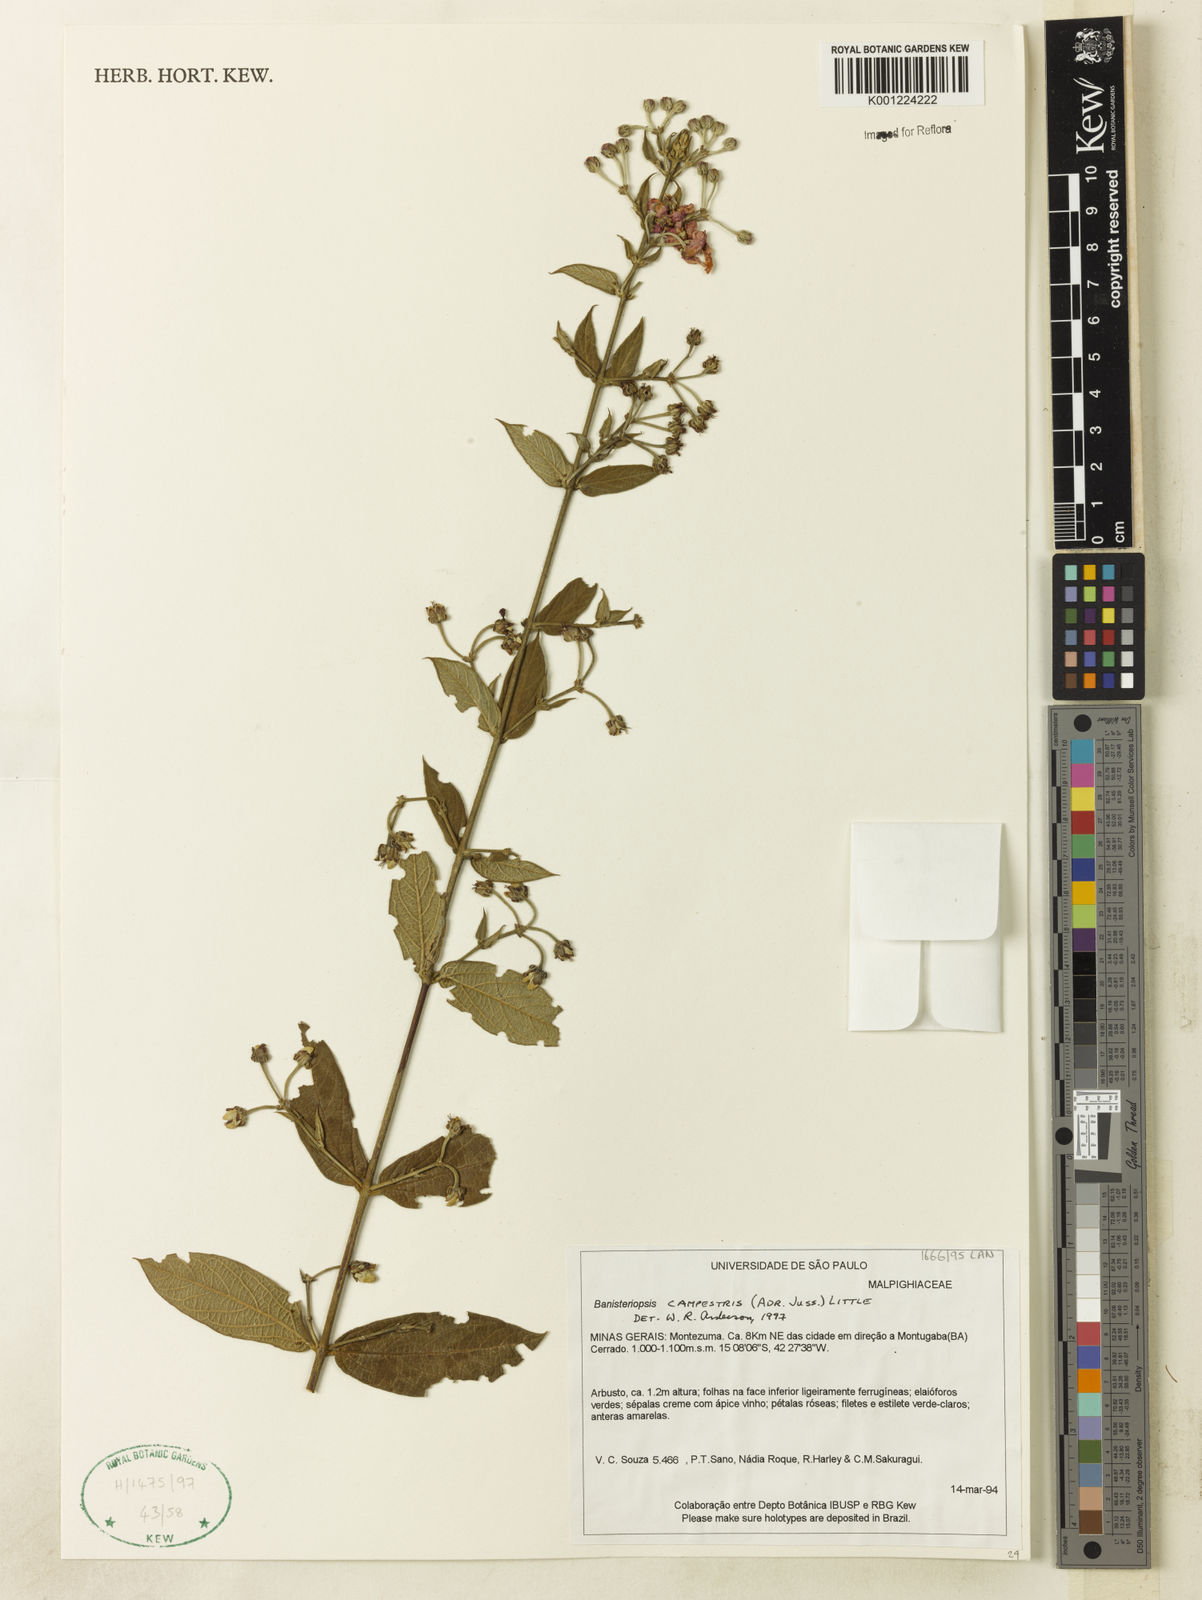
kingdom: Plantae
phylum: Tracheophyta
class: Magnoliopsida
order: Malpighiales
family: Malpighiaceae
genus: Banisteriopsis
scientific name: Banisteriopsis campestris
